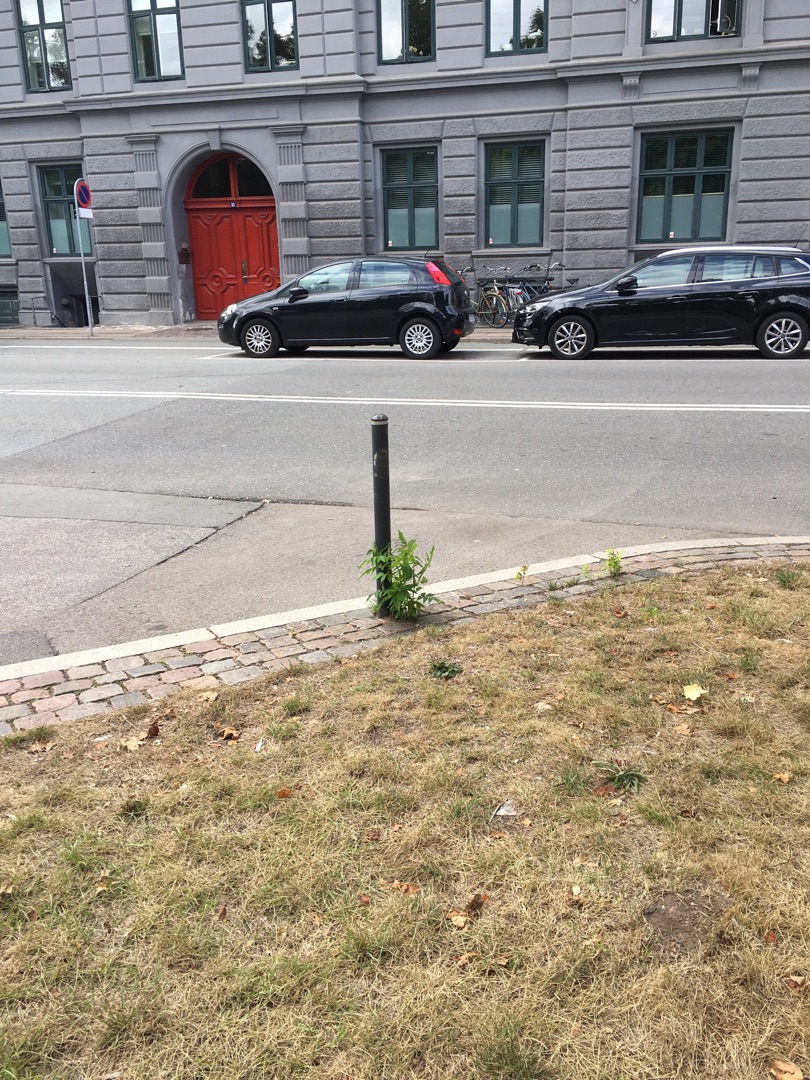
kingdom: Plantae
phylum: Tracheophyta
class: Magnoliopsida
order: Sapindales
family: Simaroubaceae
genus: Ailanthus
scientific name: Ailanthus altissima
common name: Skyrækker
